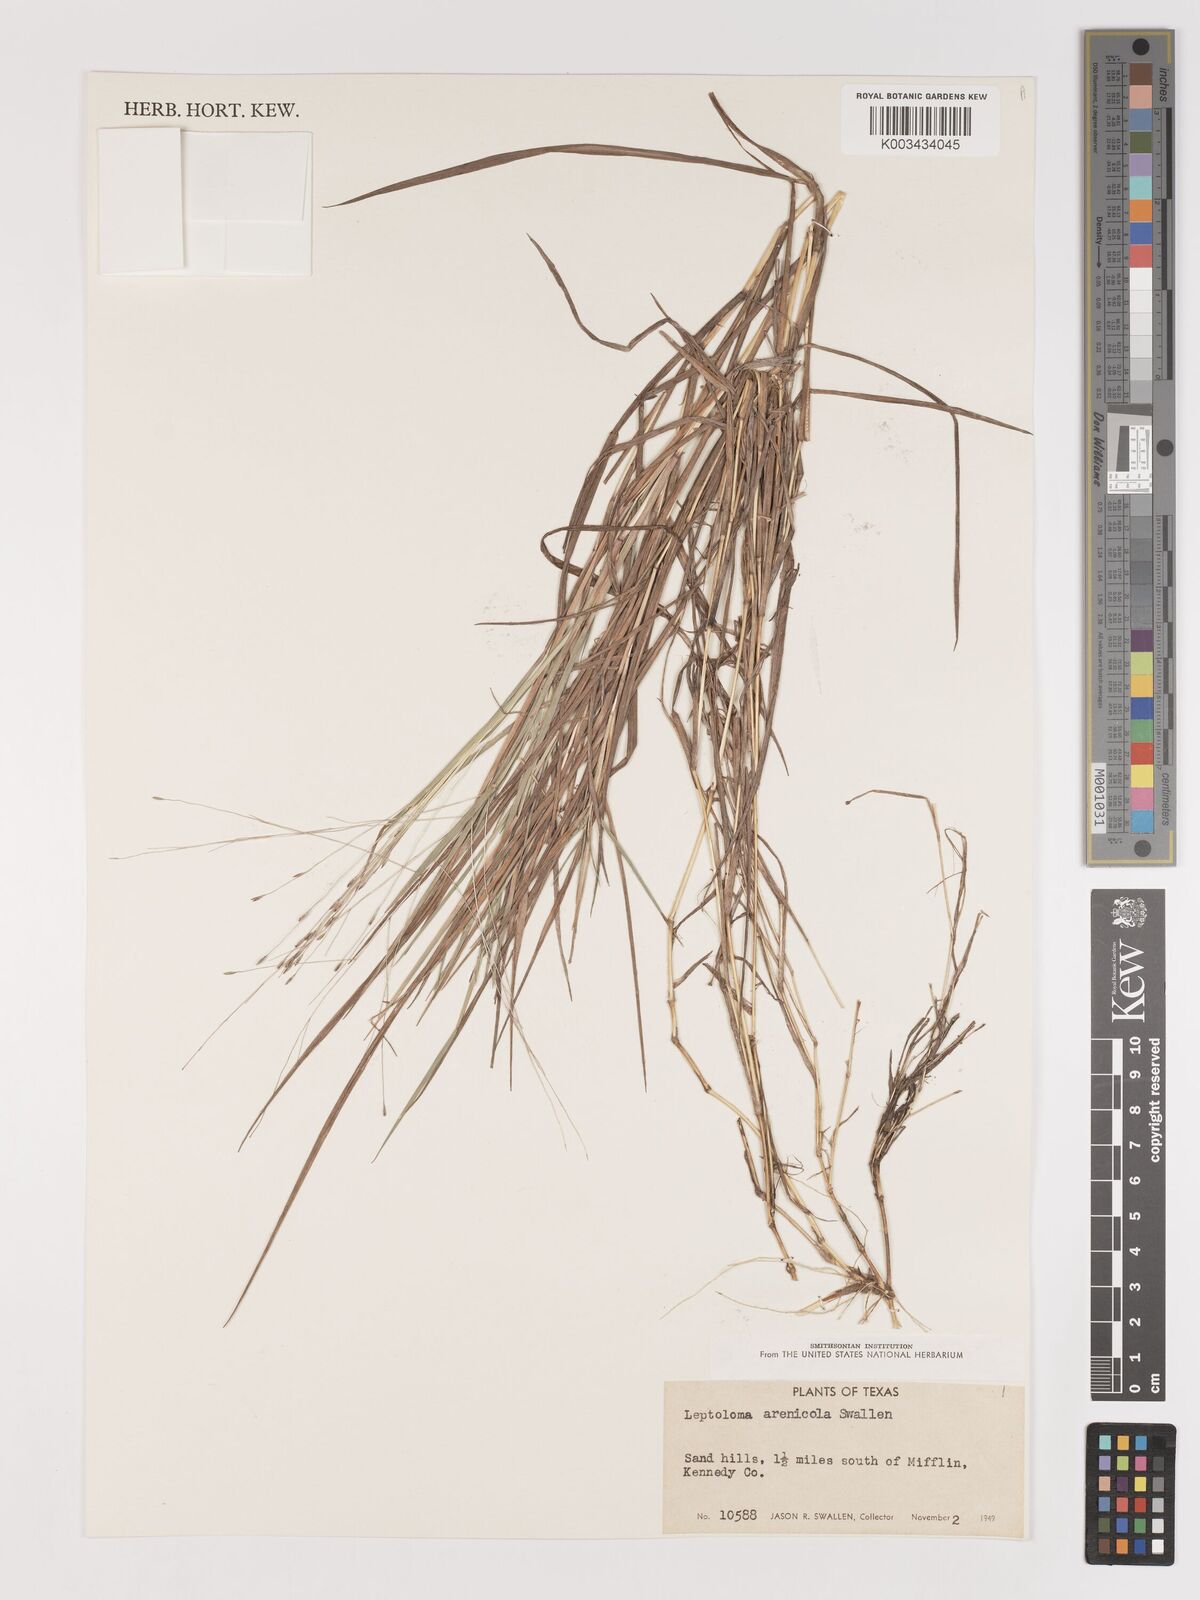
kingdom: Plantae
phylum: Tracheophyta
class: Liliopsida
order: Poales
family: Poaceae
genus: Digitaria
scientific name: Digitaria arenicola
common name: Sand witchgrass
